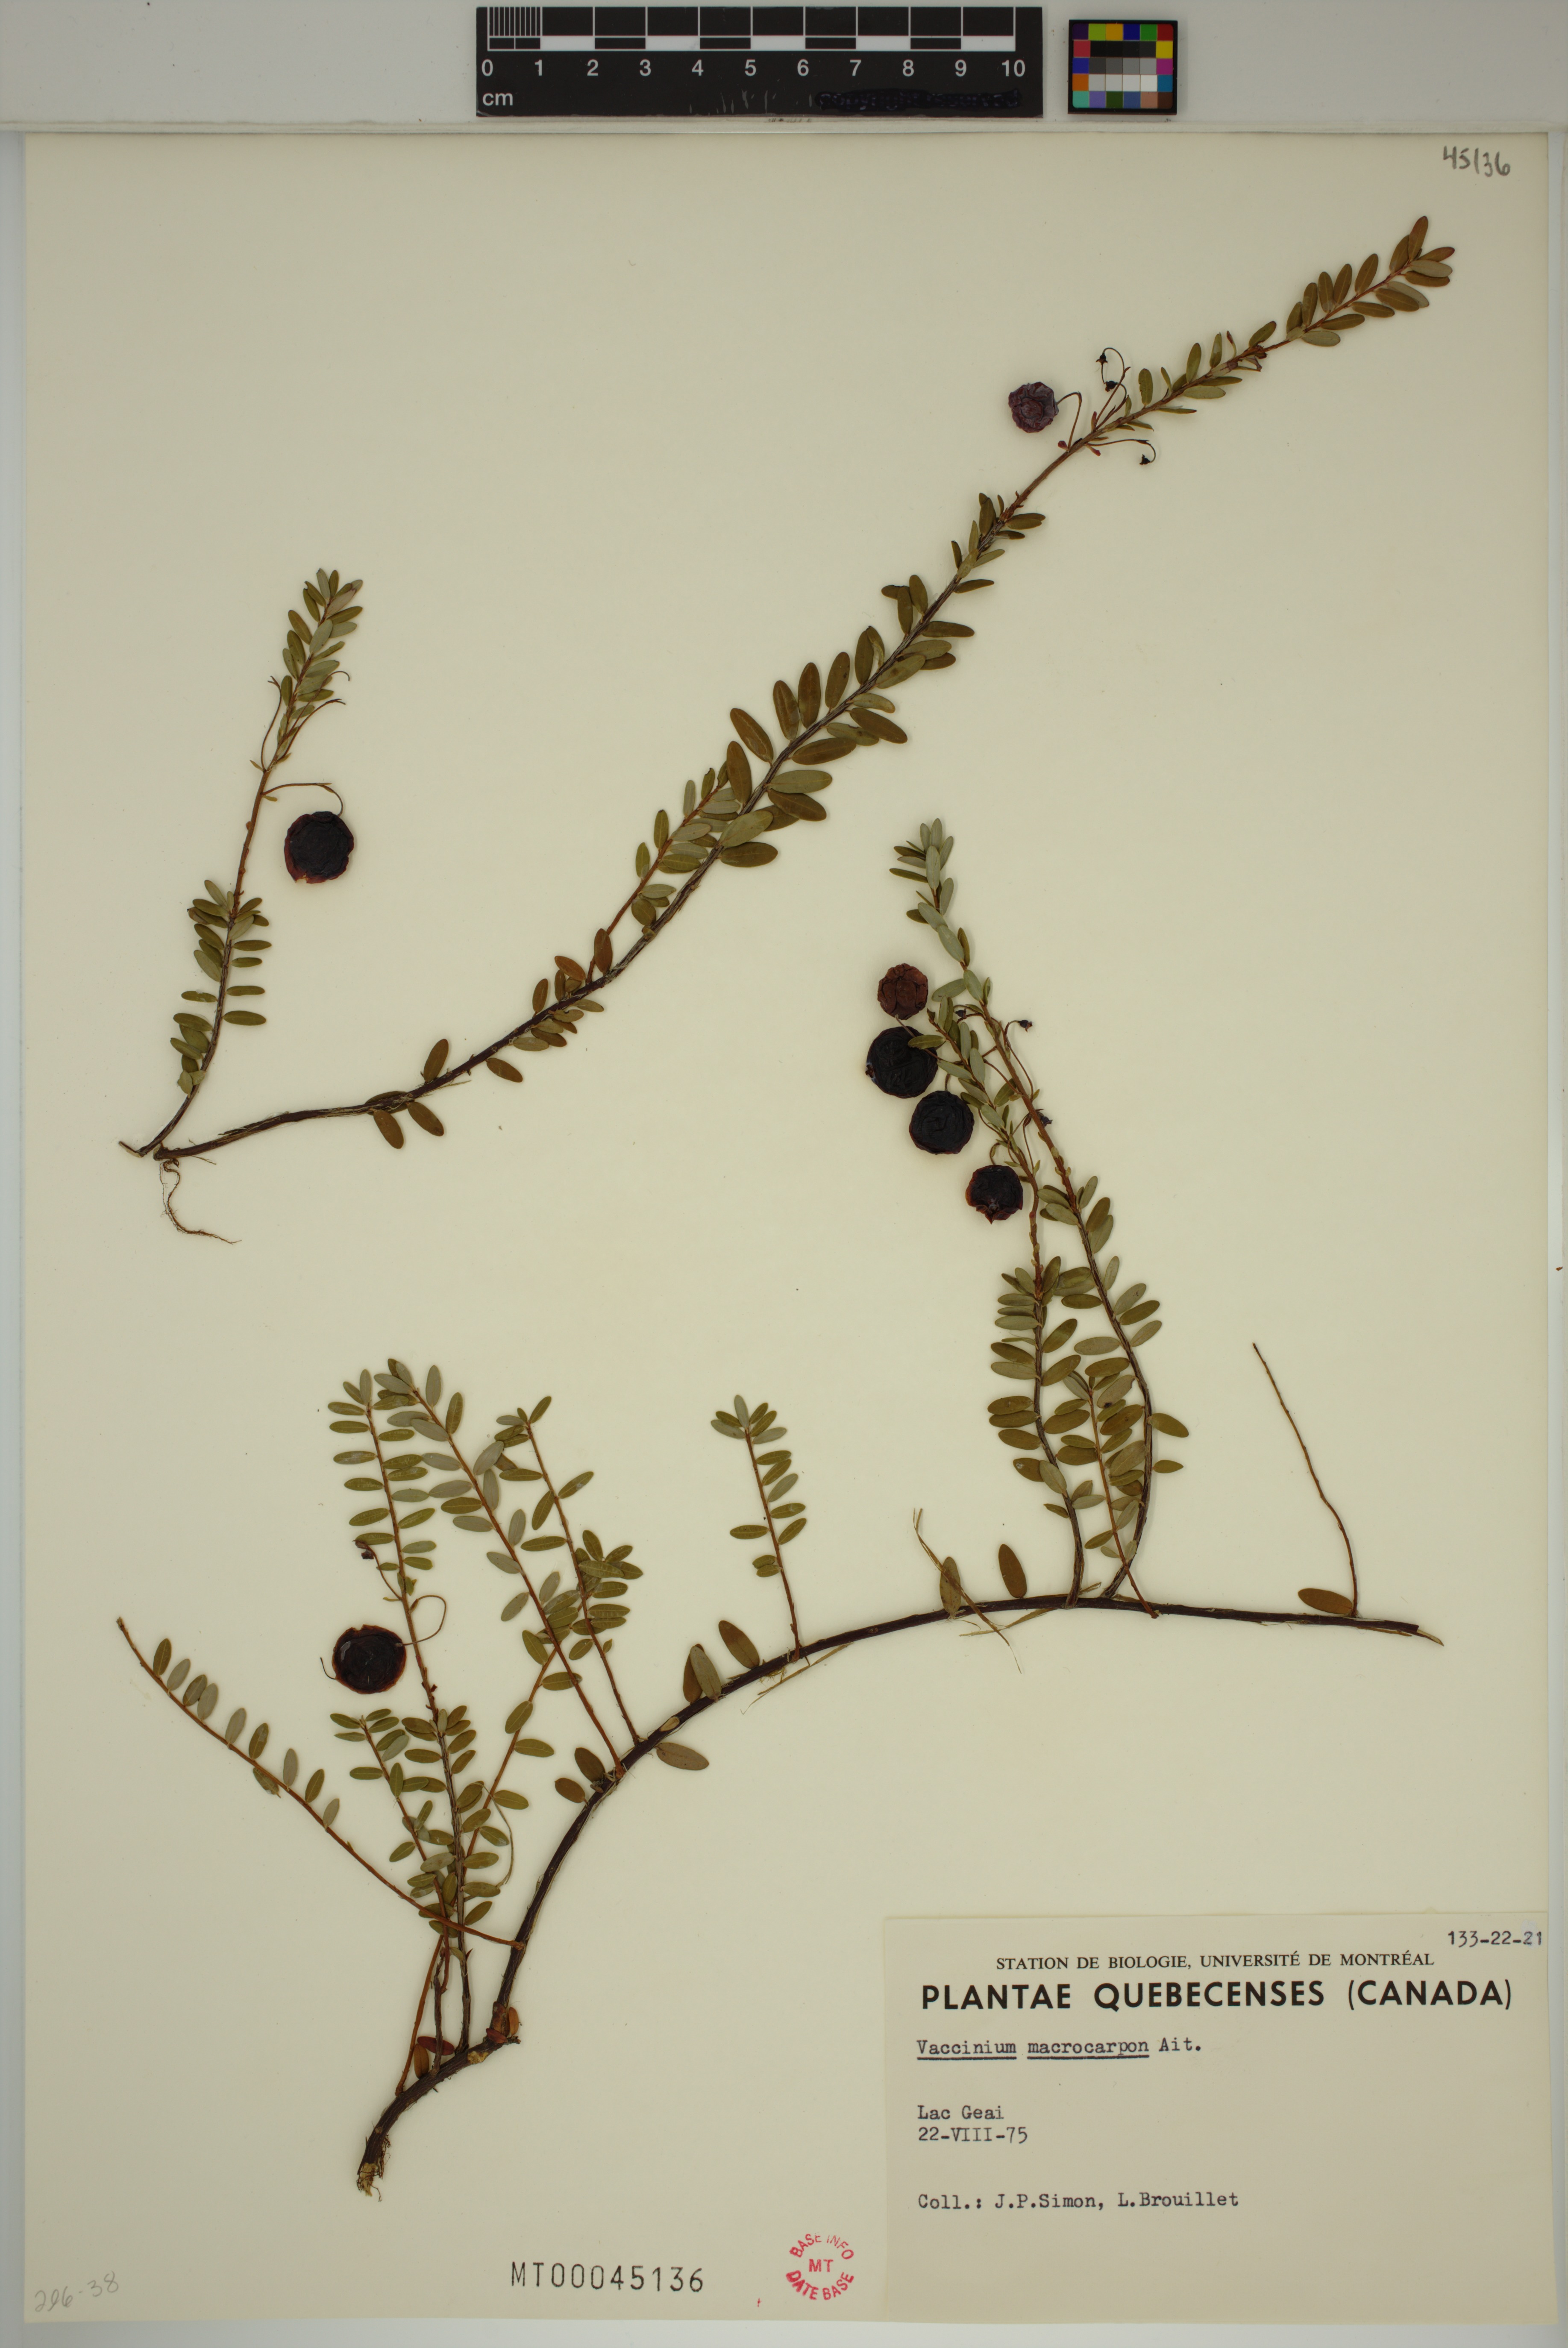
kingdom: Plantae
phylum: Tracheophyta
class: Magnoliopsida
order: Ericales
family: Ericaceae
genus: Vaccinium
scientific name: Vaccinium macrocarpon
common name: American cranberry
